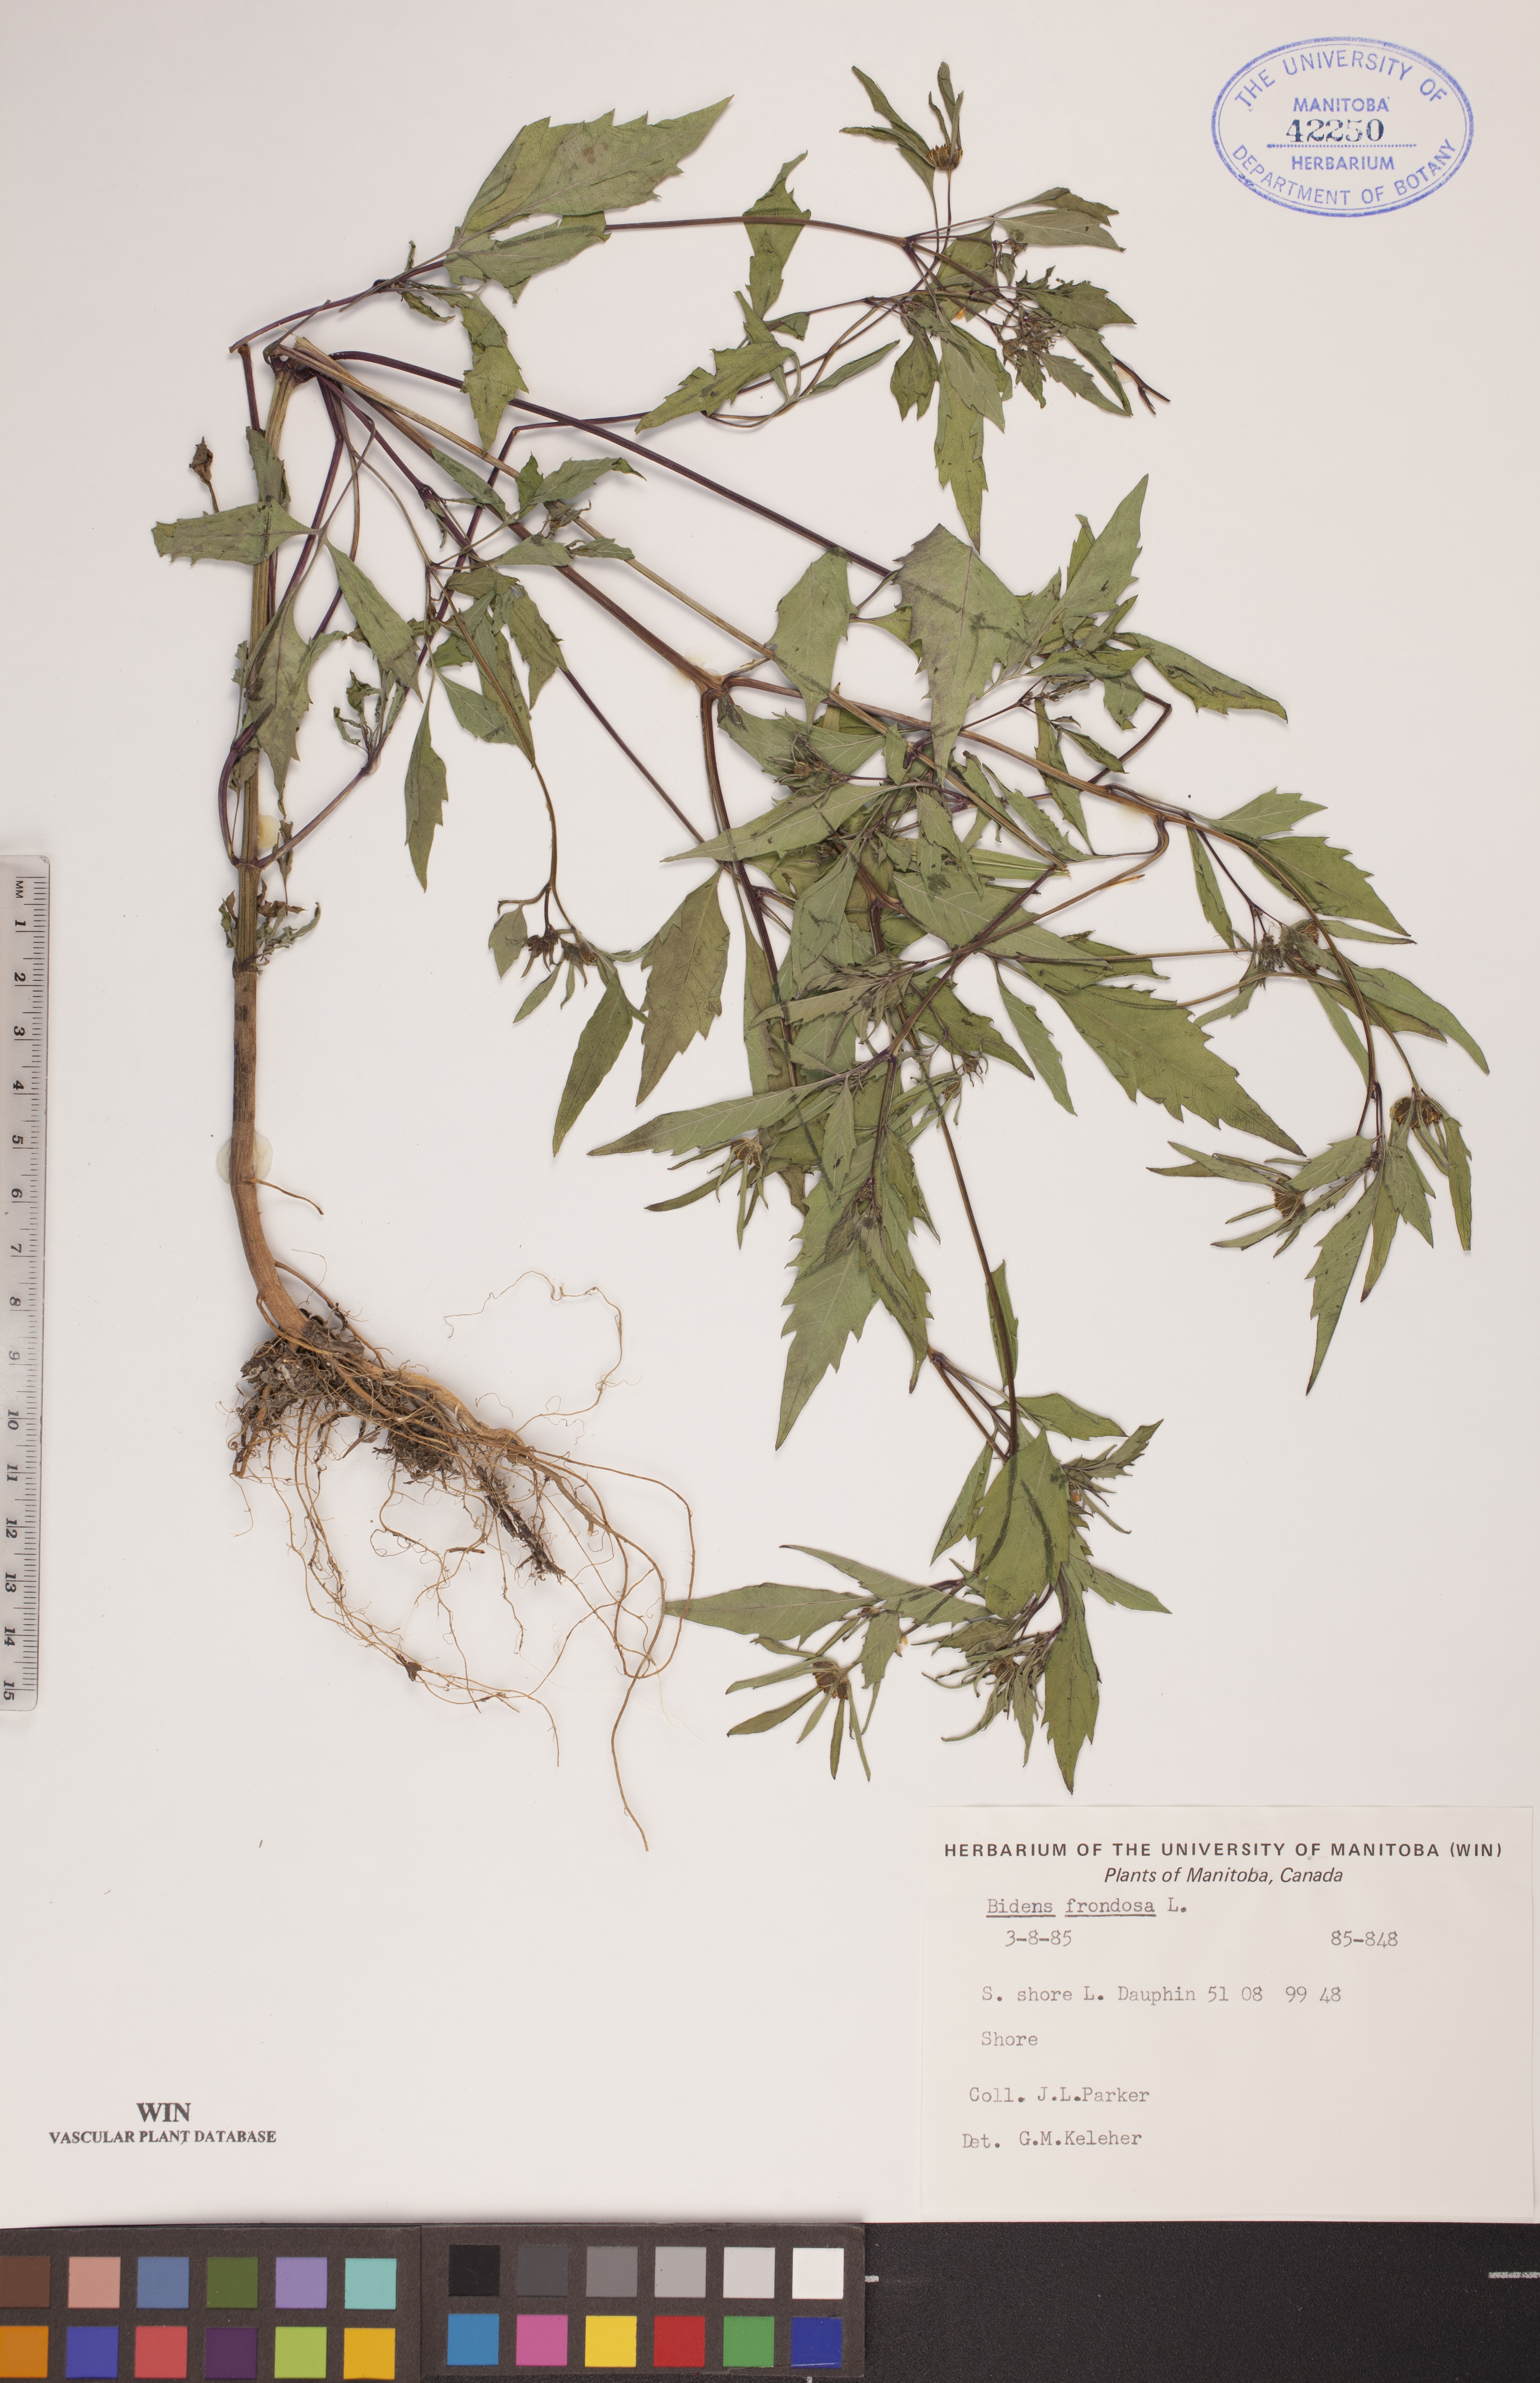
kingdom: Plantae
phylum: Tracheophyta
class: Magnoliopsida
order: Asterales
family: Asteraceae
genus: Bidens
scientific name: Bidens frondosa
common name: Beggarticks
